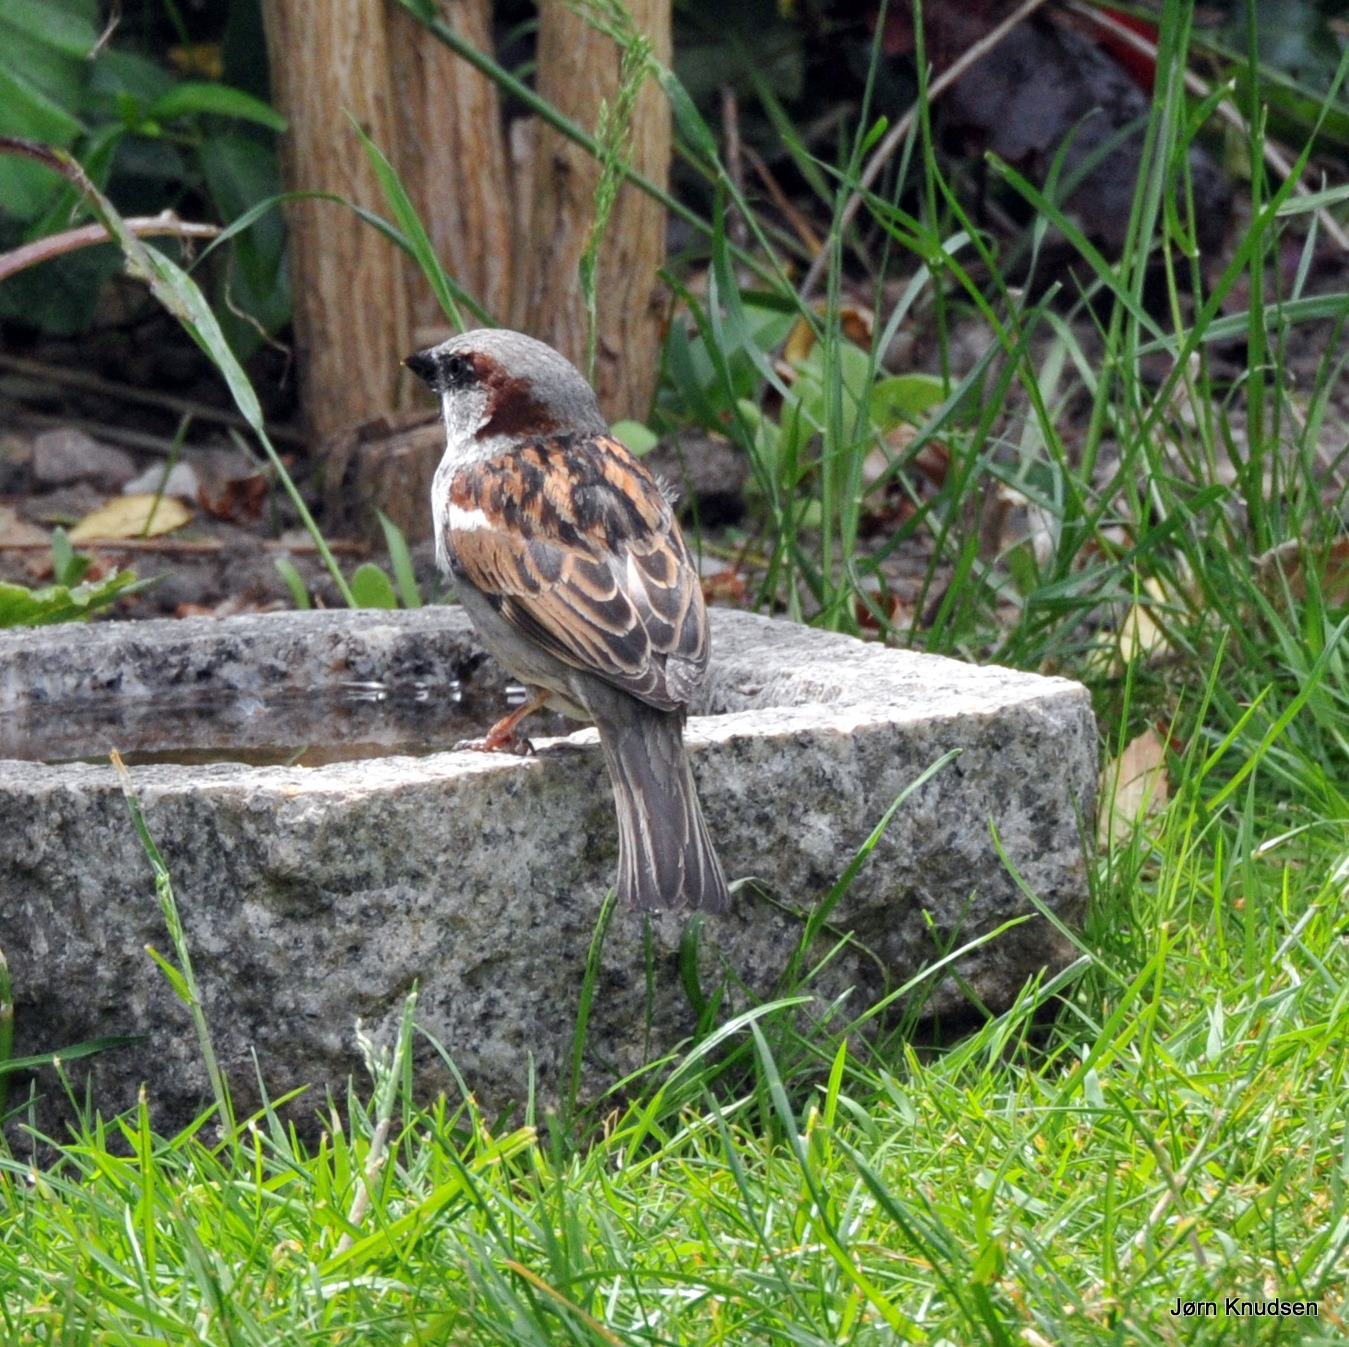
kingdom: Animalia
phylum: Chordata
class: Aves
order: Passeriformes
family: Passeridae
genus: Passer
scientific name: Passer domesticus
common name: Gråspurv
